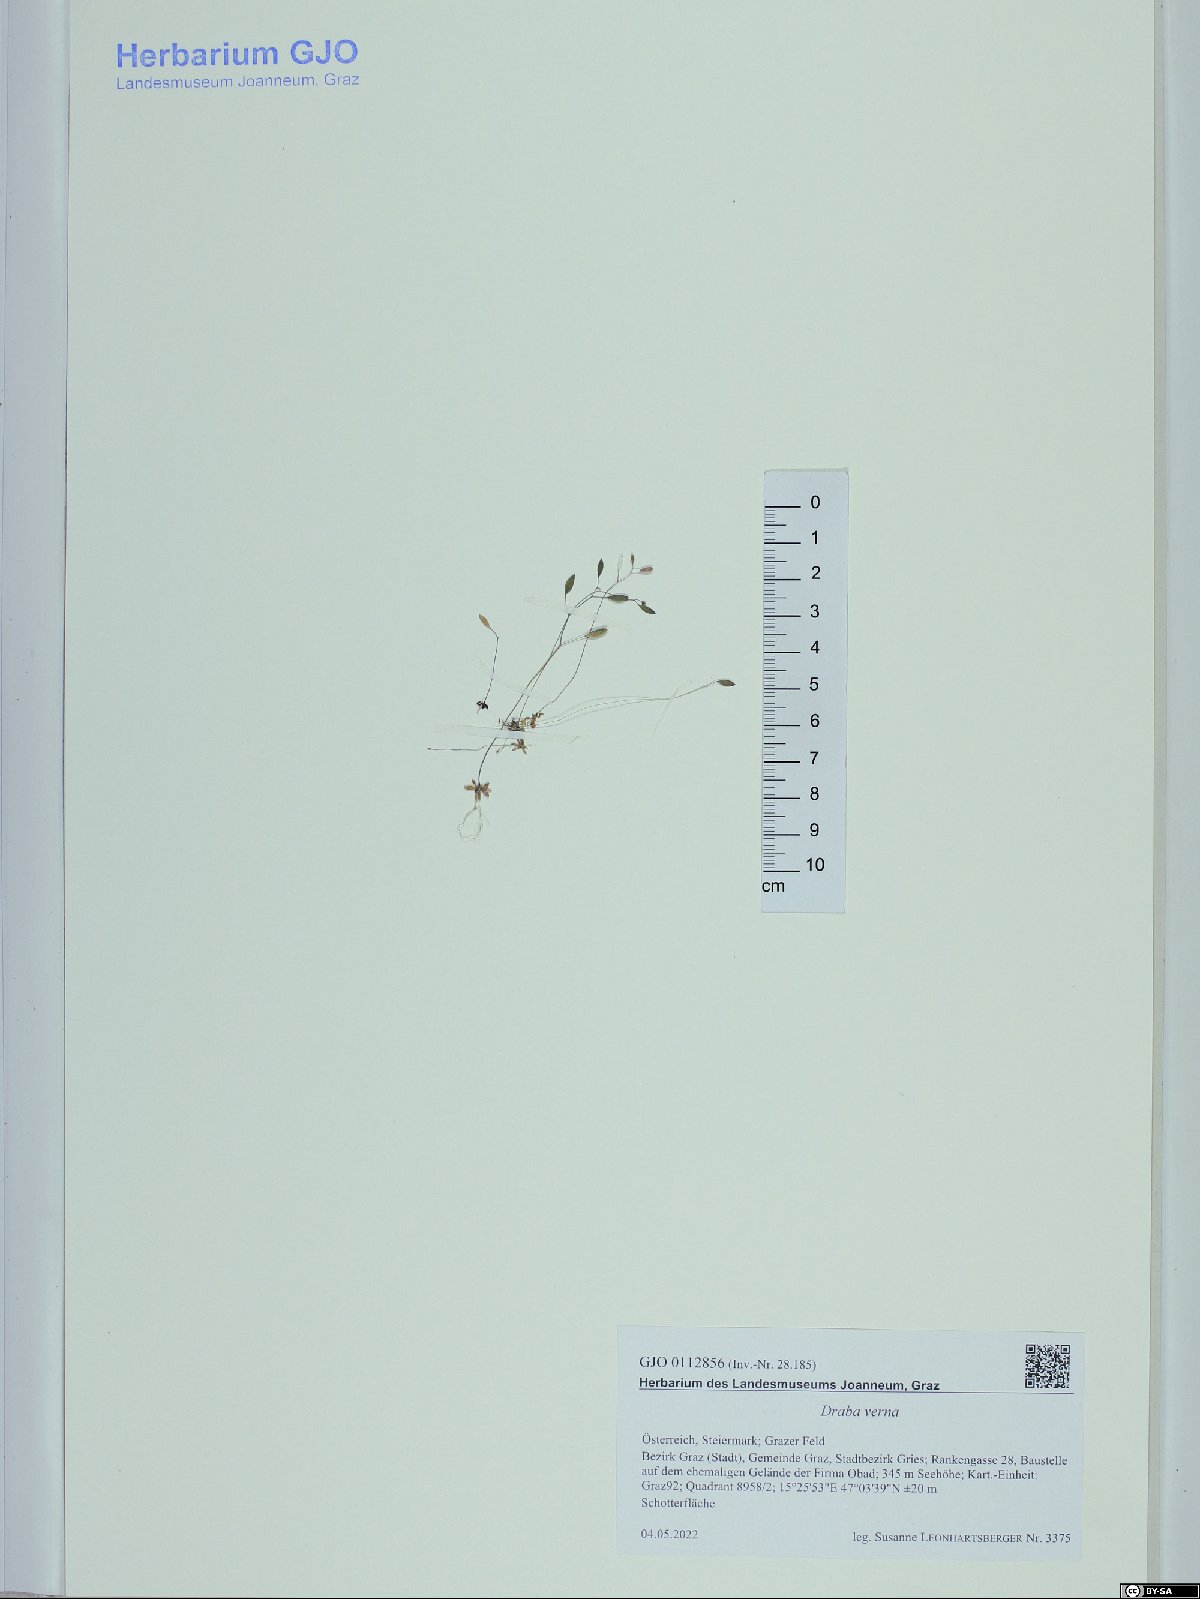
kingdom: Plantae
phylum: Tracheophyta
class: Magnoliopsida
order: Brassicales
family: Brassicaceae
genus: Draba
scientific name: Draba verna
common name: Spring draba
